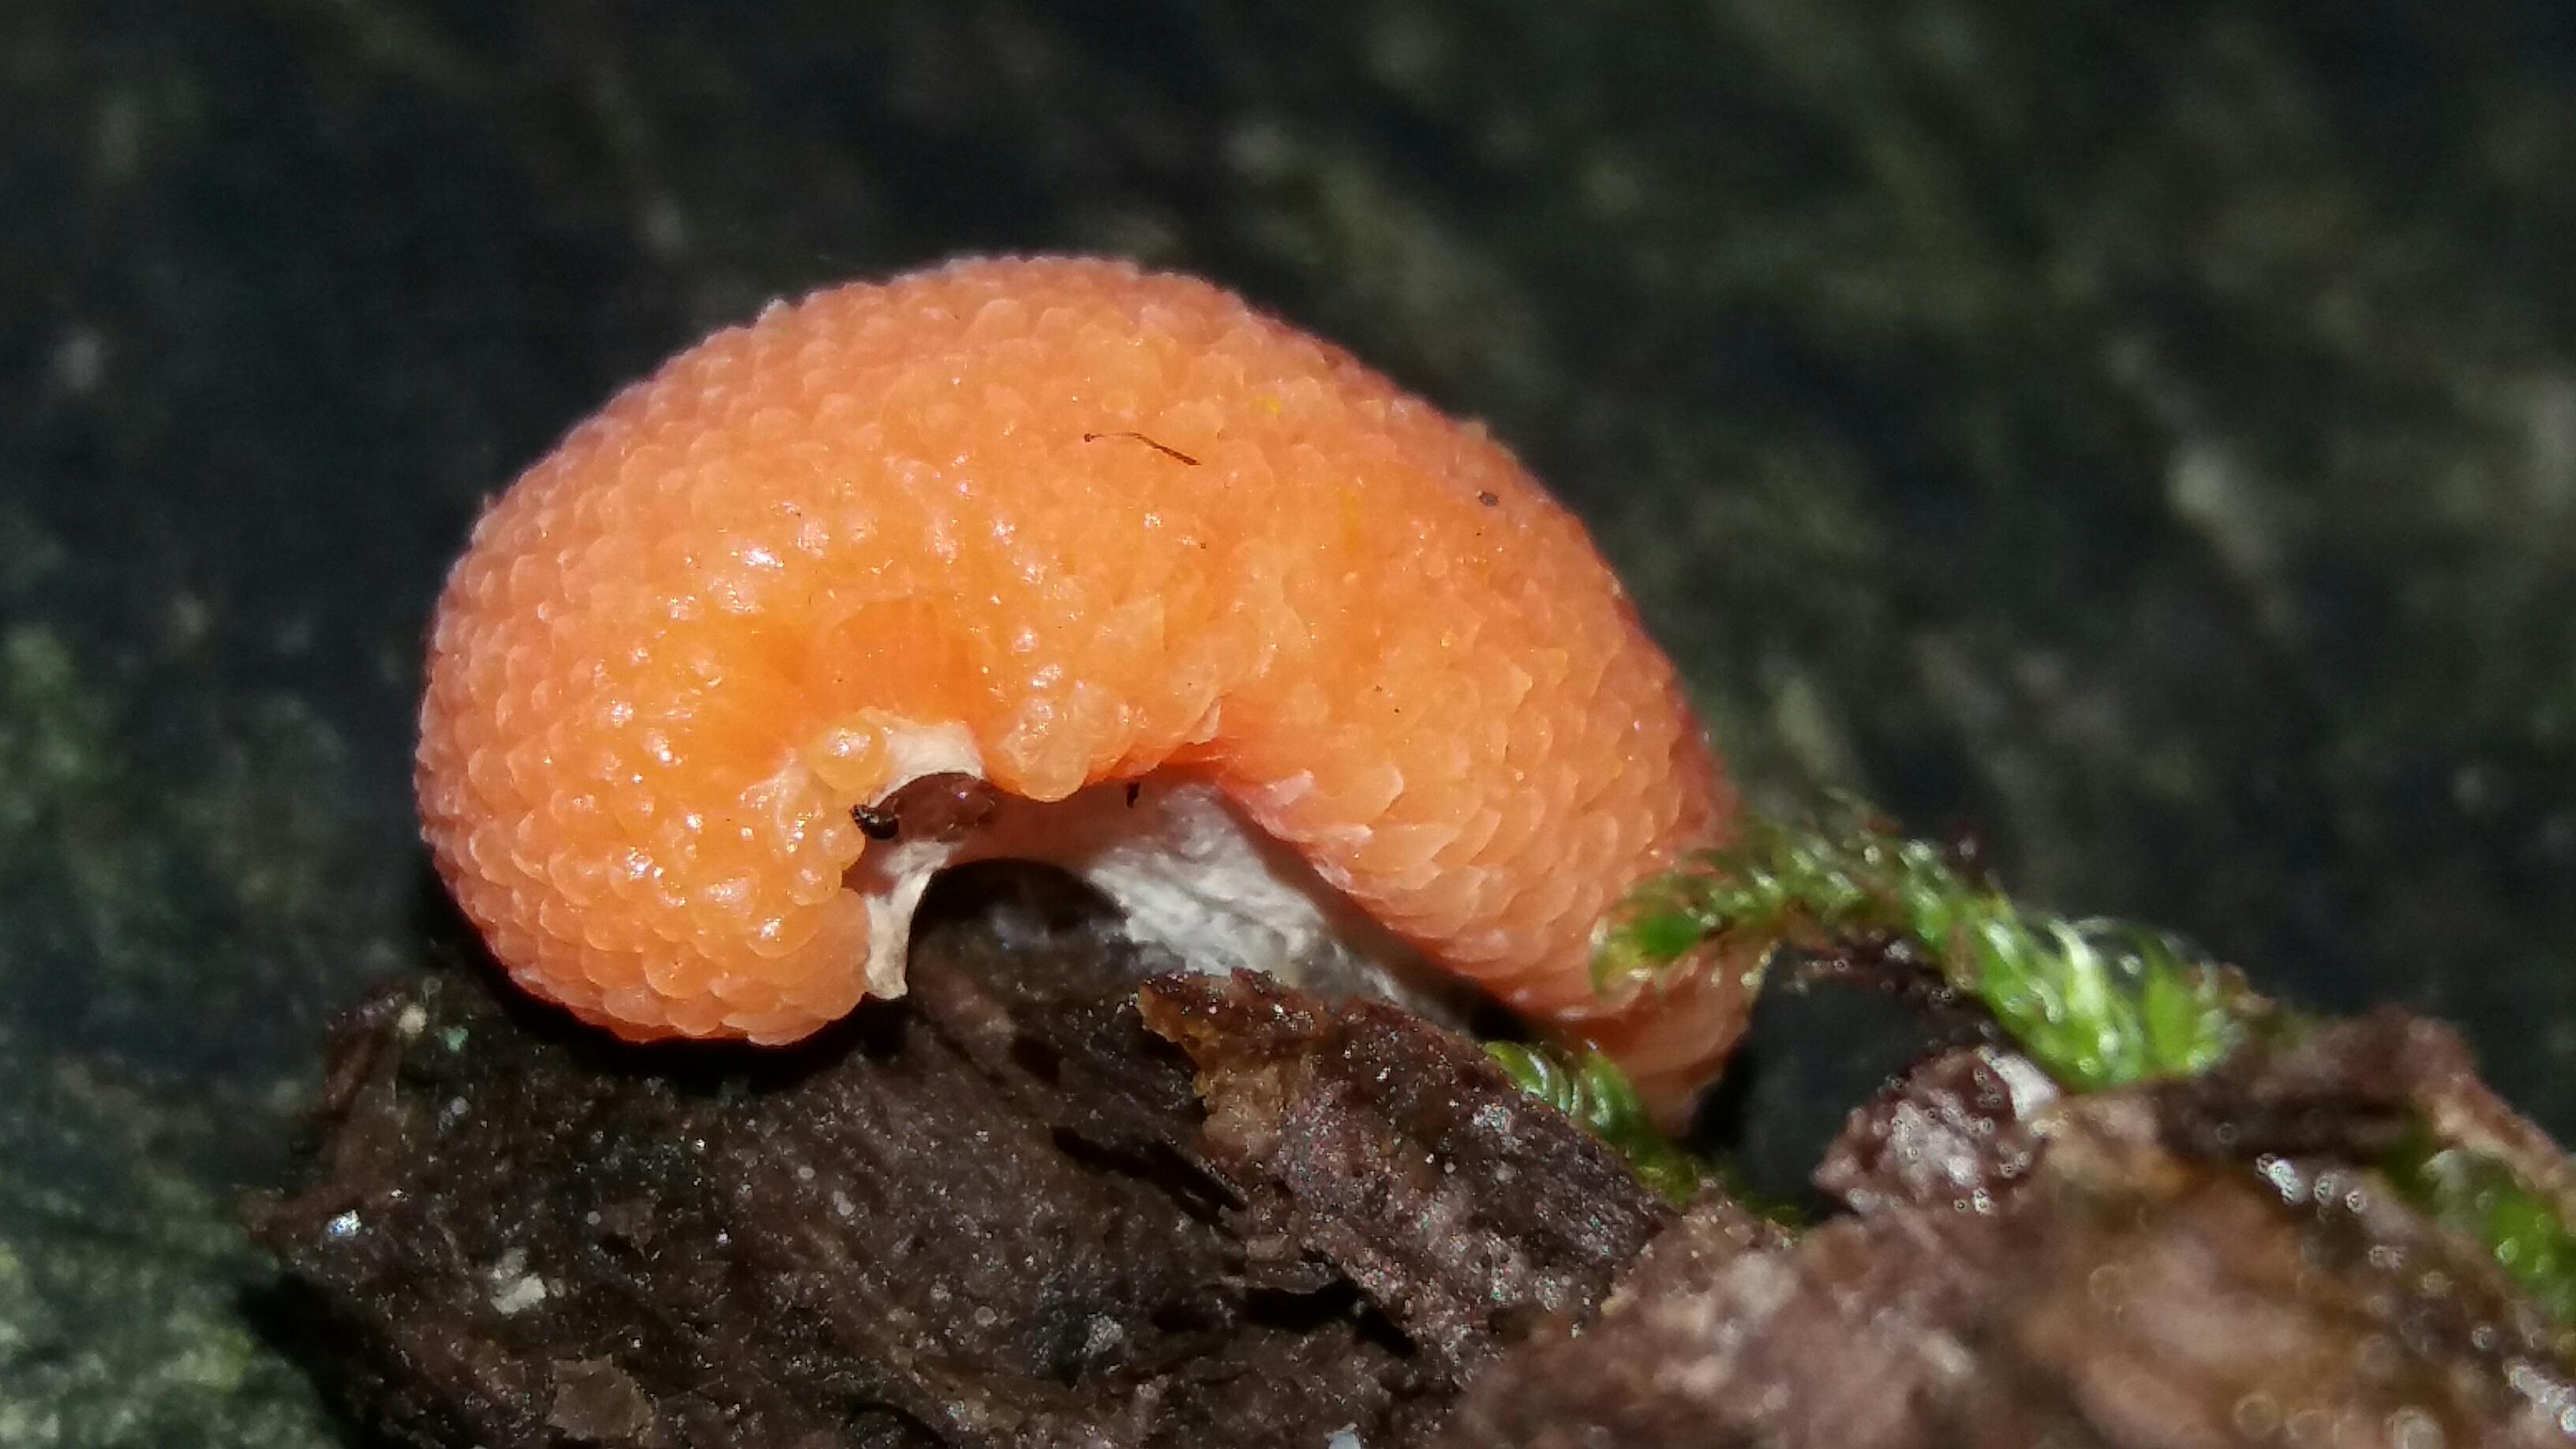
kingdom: Protozoa
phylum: Mycetozoa
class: Myxomycetes
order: Cribrariales
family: Tubiferaceae
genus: Tubifera
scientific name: Tubifera ferruginosa
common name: kanel-støvrør
